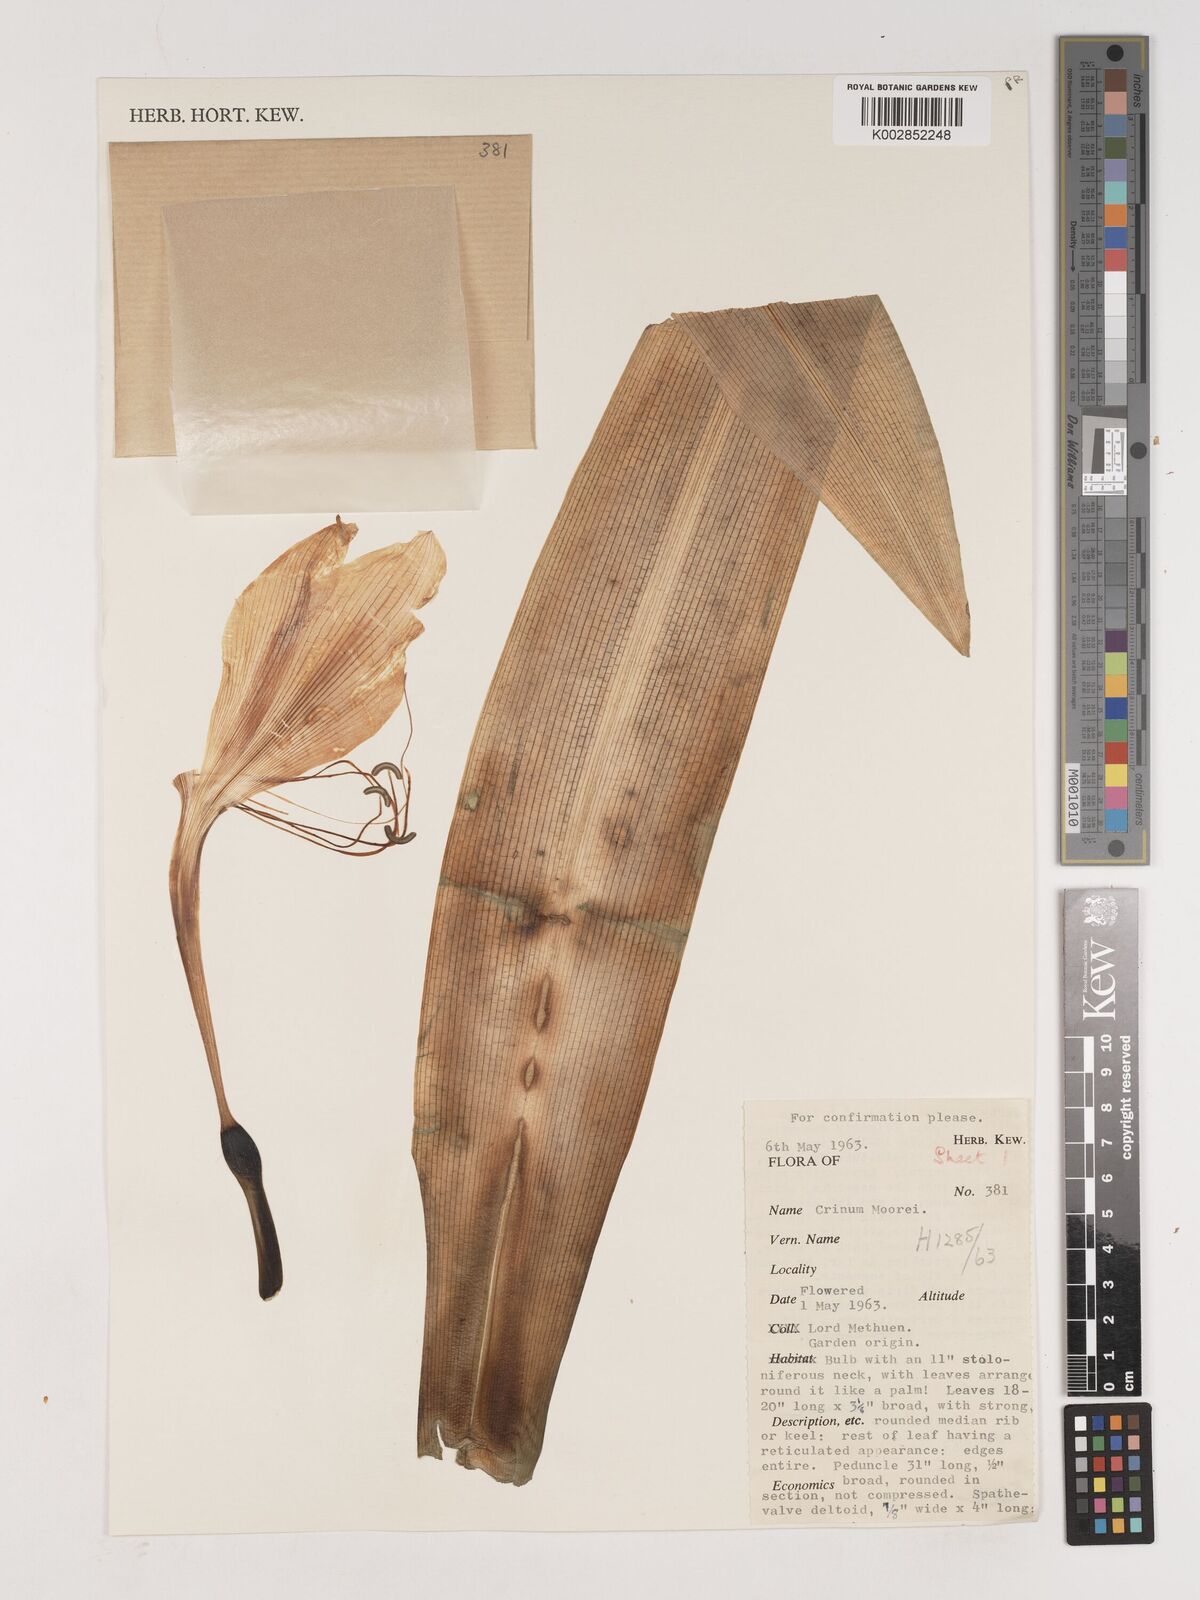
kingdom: Plantae
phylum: Tracheophyta
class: Liliopsida
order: Asparagales
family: Amaryllidaceae
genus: Crinum
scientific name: Crinum moorei
